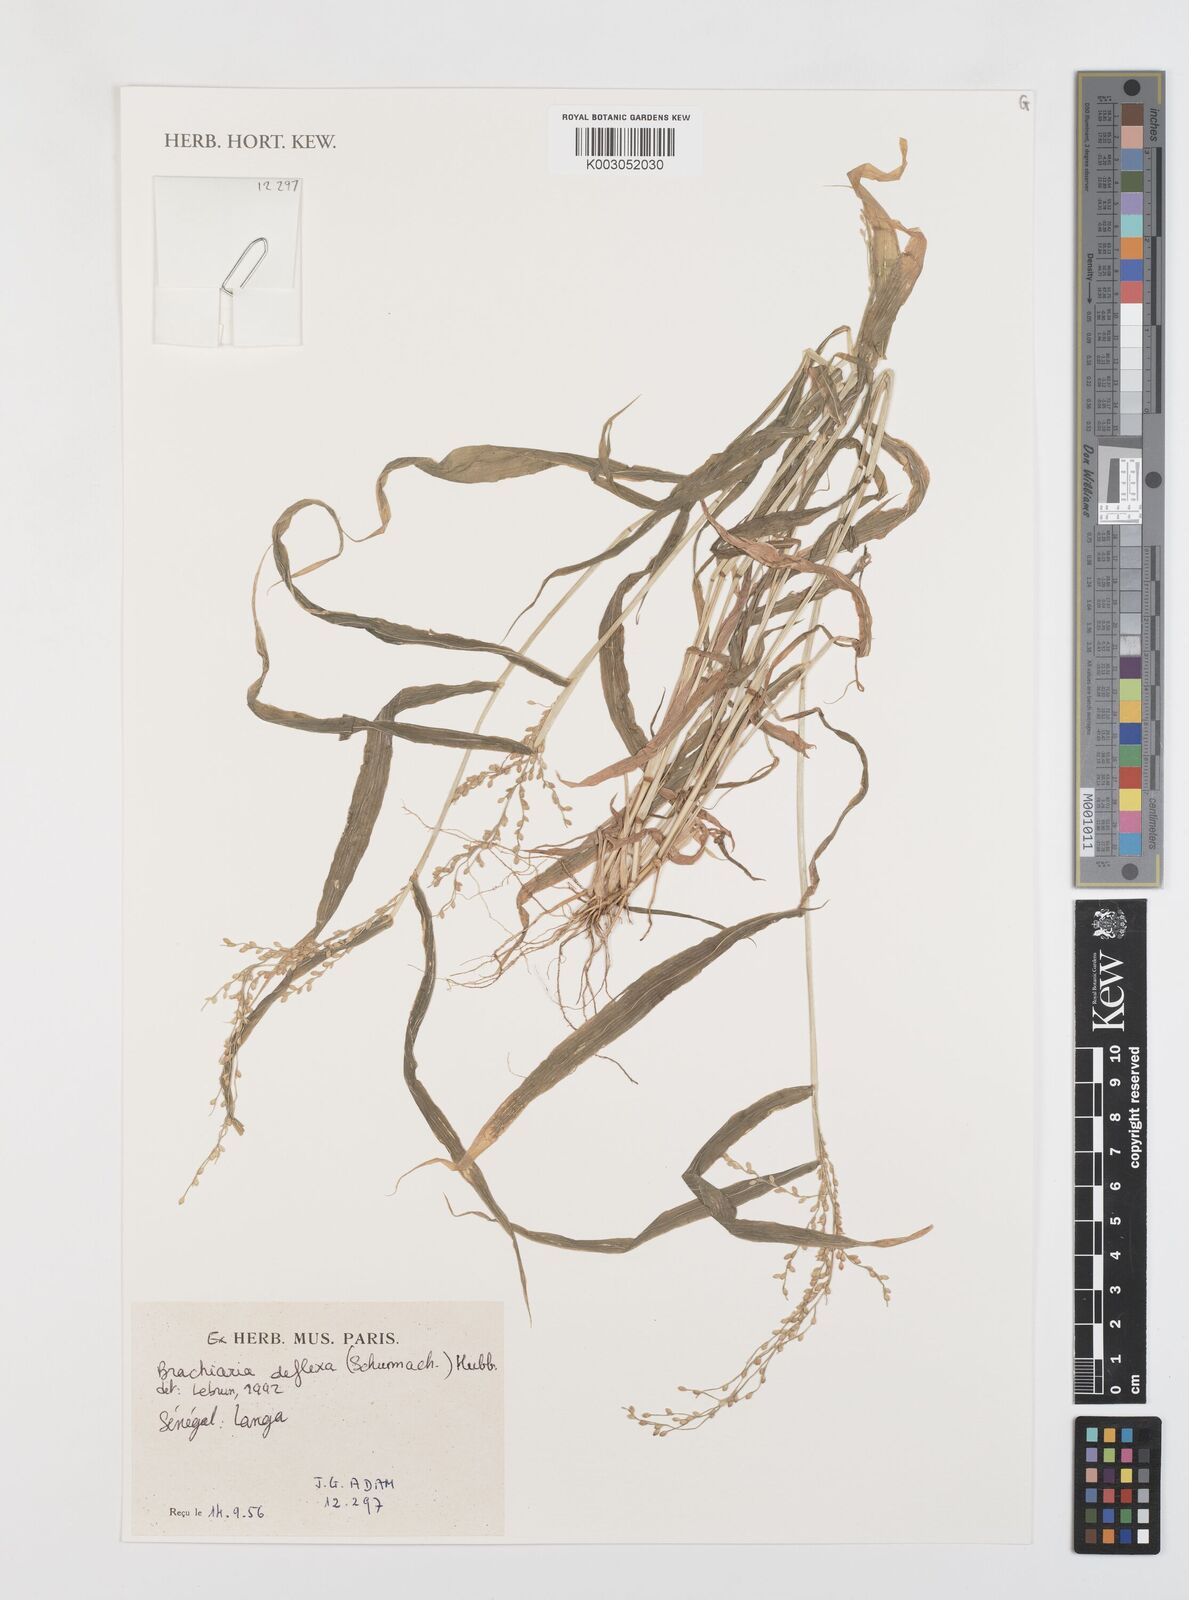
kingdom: Plantae
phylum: Tracheophyta
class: Liliopsida
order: Poales
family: Poaceae
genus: Urochloa
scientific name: Urochloa deflexa
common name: Guinea millet
